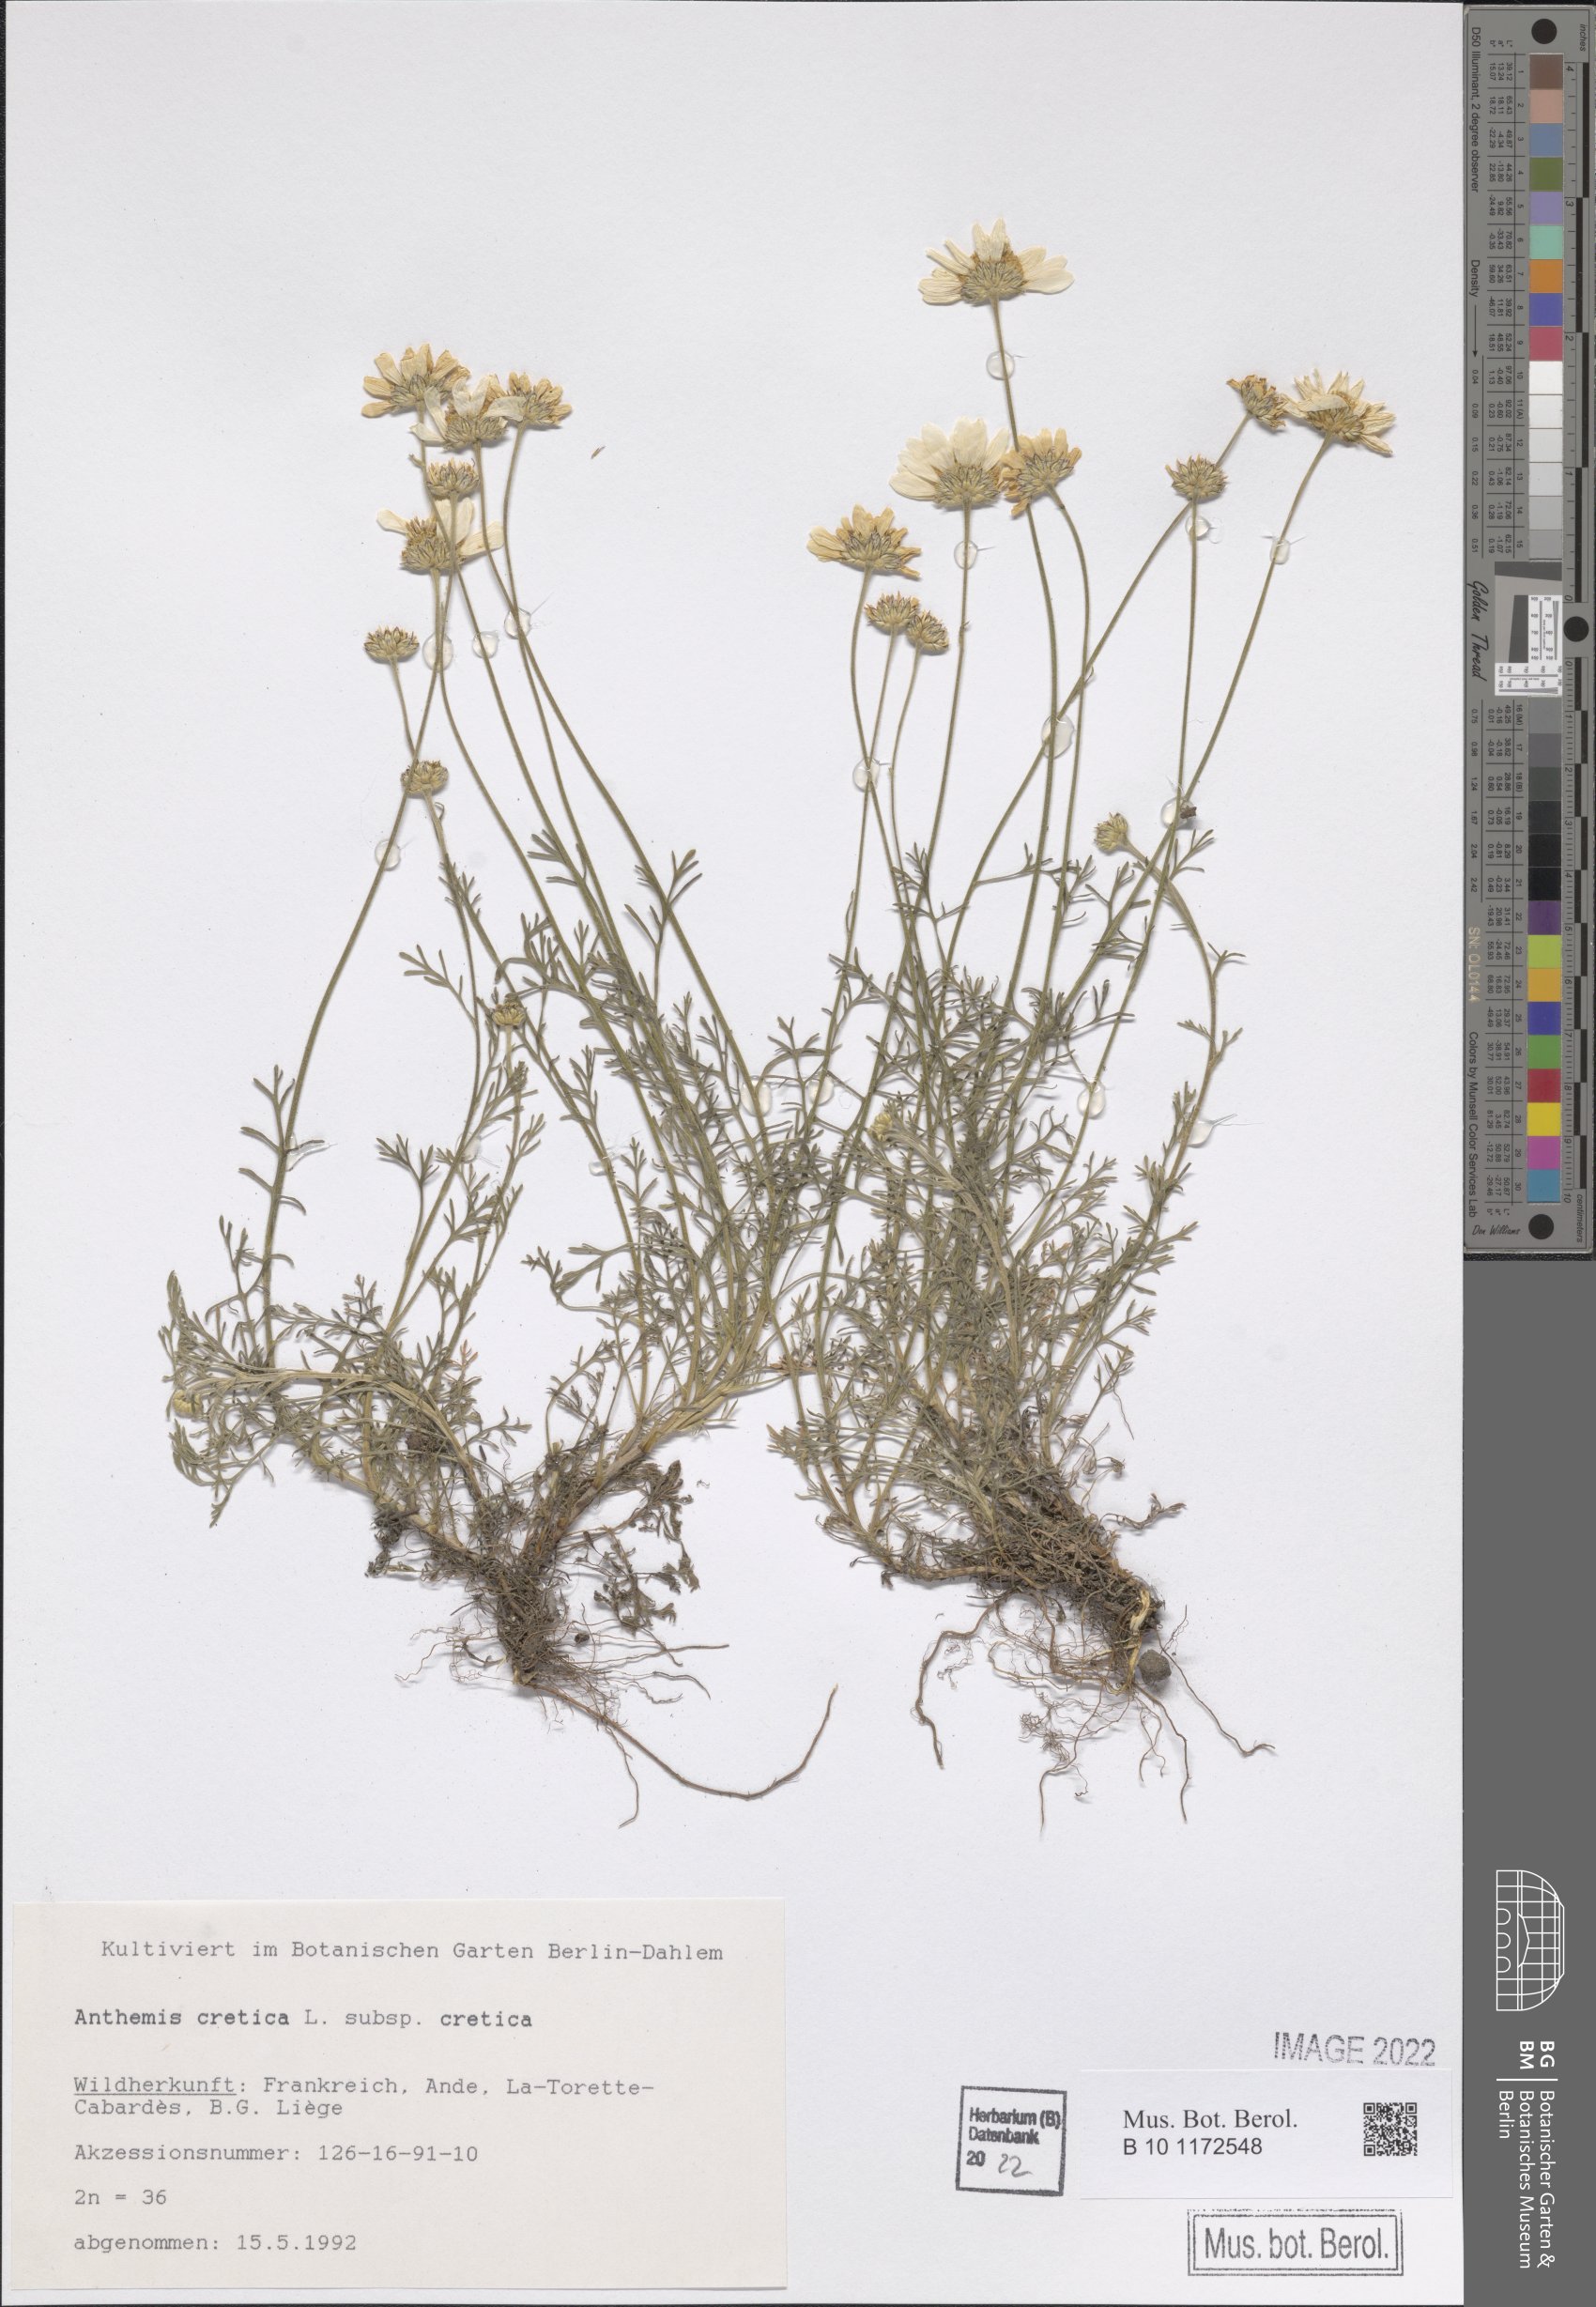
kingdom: Plantae
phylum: Tracheophyta
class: Magnoliopsida
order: Asterales
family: Asteraceae
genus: Anthemis
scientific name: Anthemis cretica
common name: Mountain dog-daisy
